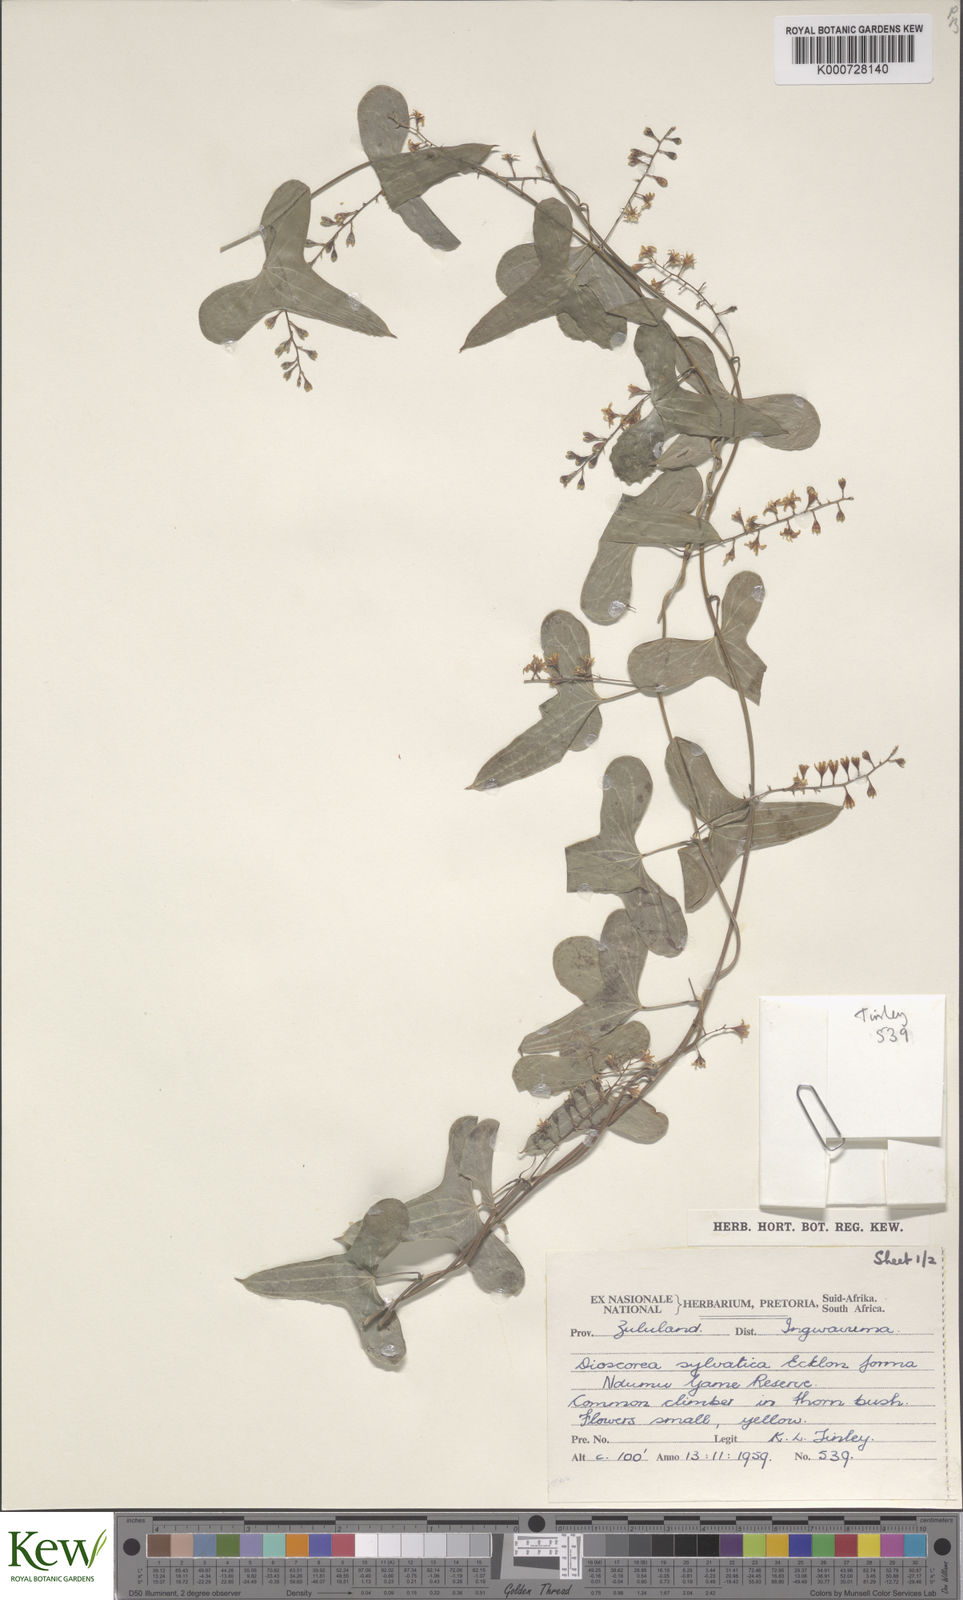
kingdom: Plantae
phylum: Tracheophyta
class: Liliopsida
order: Dioscoreales
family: Dioscoreaceae
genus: Dioscorea
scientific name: Dioscorea sylvatica
